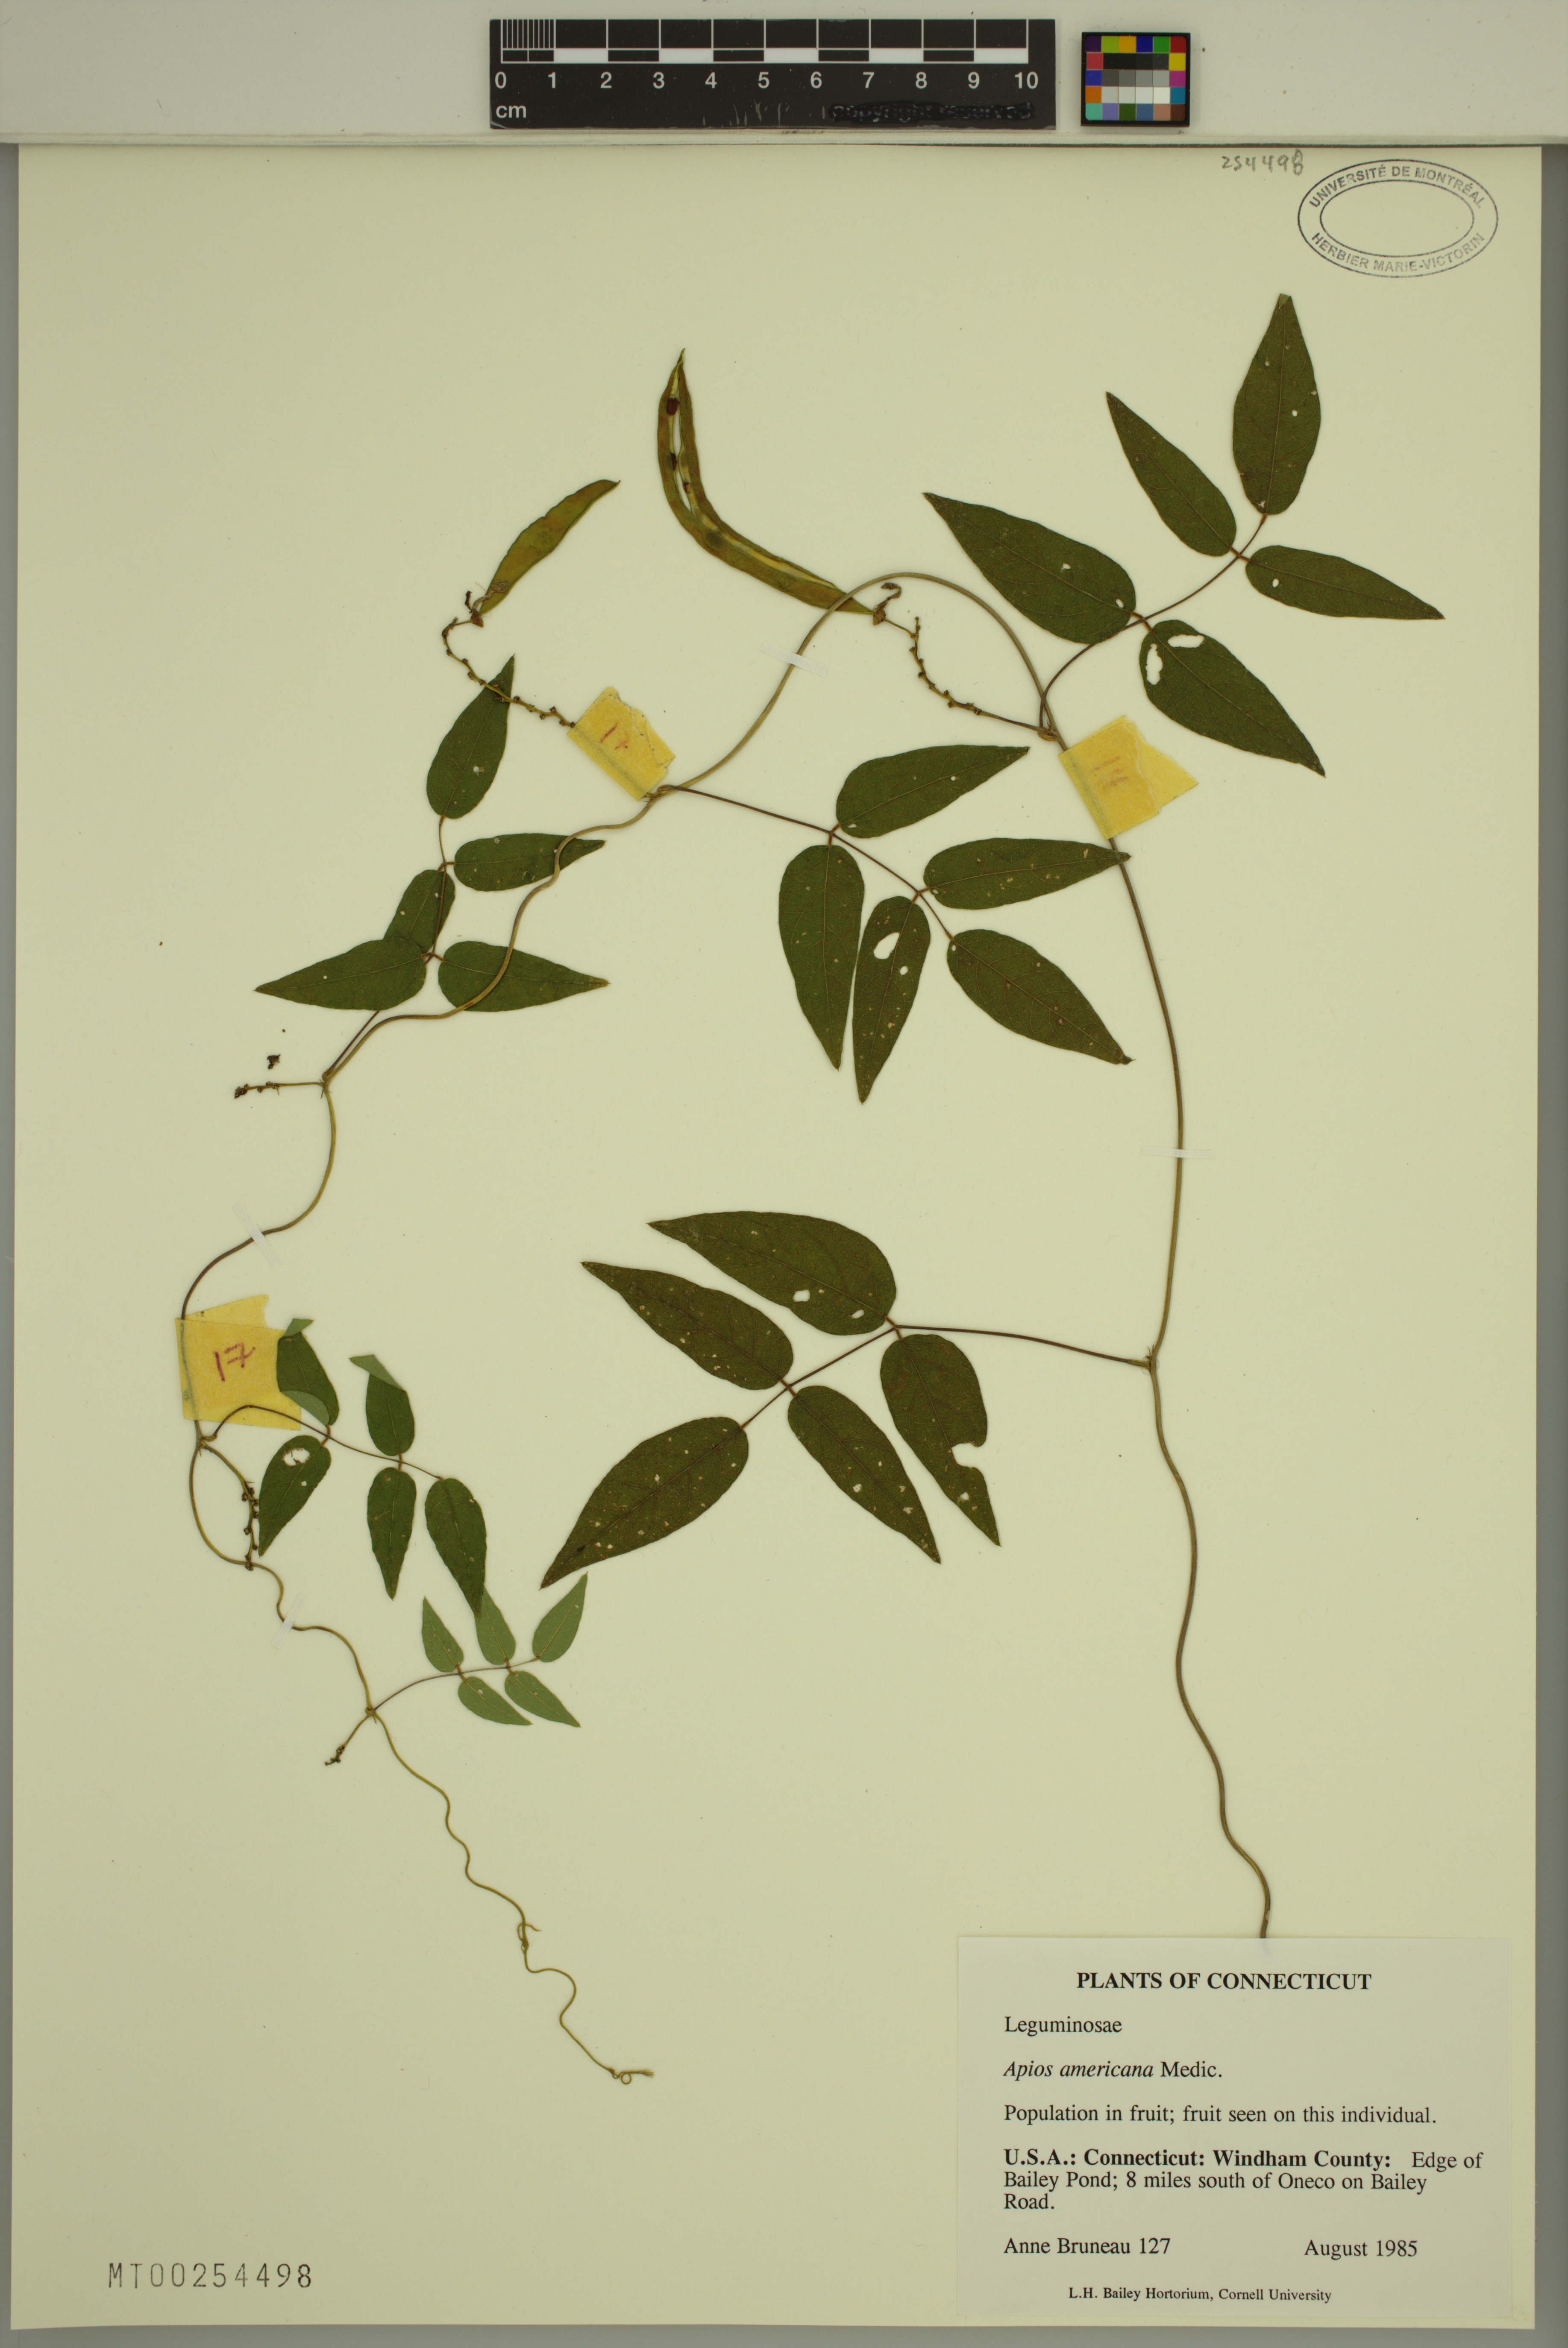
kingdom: Plantae
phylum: Tracheophyta
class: Magnoliopsida
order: Fabales
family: Fabaceae
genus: Apios
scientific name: Apios americana
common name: American potato-bean
